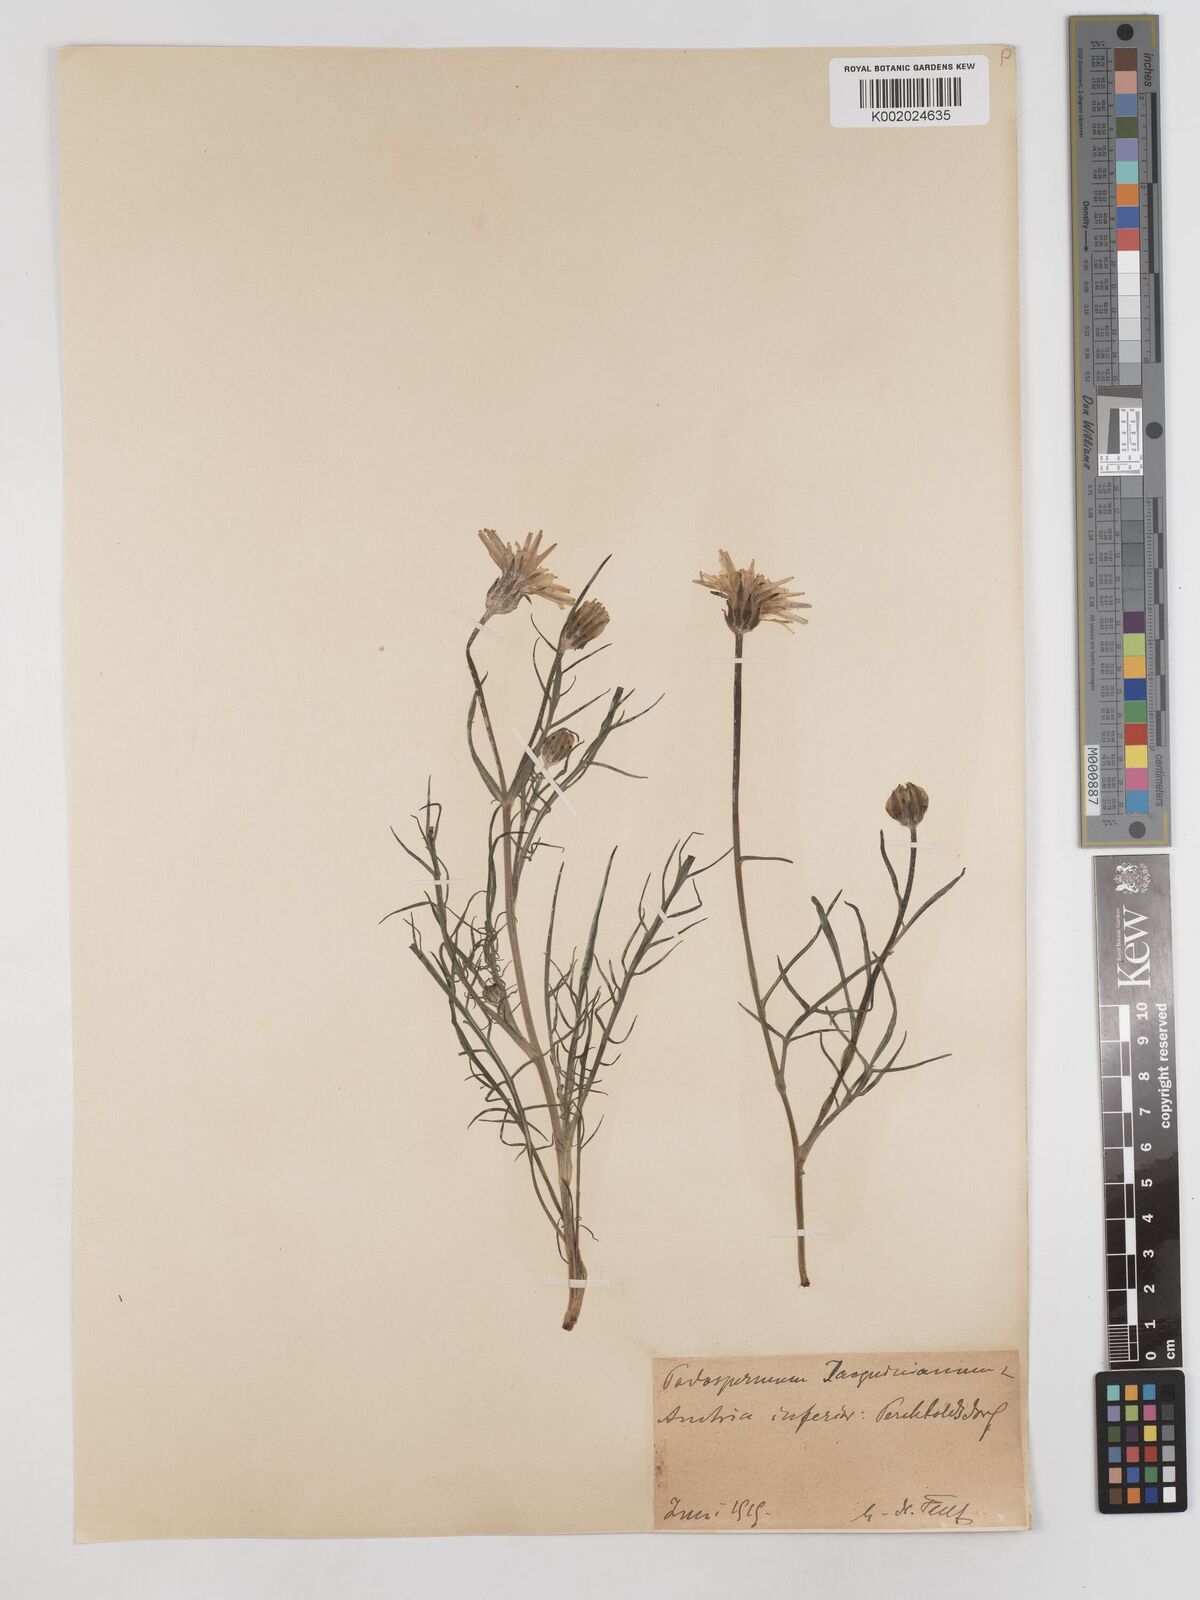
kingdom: Plantae
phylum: Tracheophyta
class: Magnoliopsida
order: Asterales
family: Asteraceae
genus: Scorzonera
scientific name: Scorzonera cana
